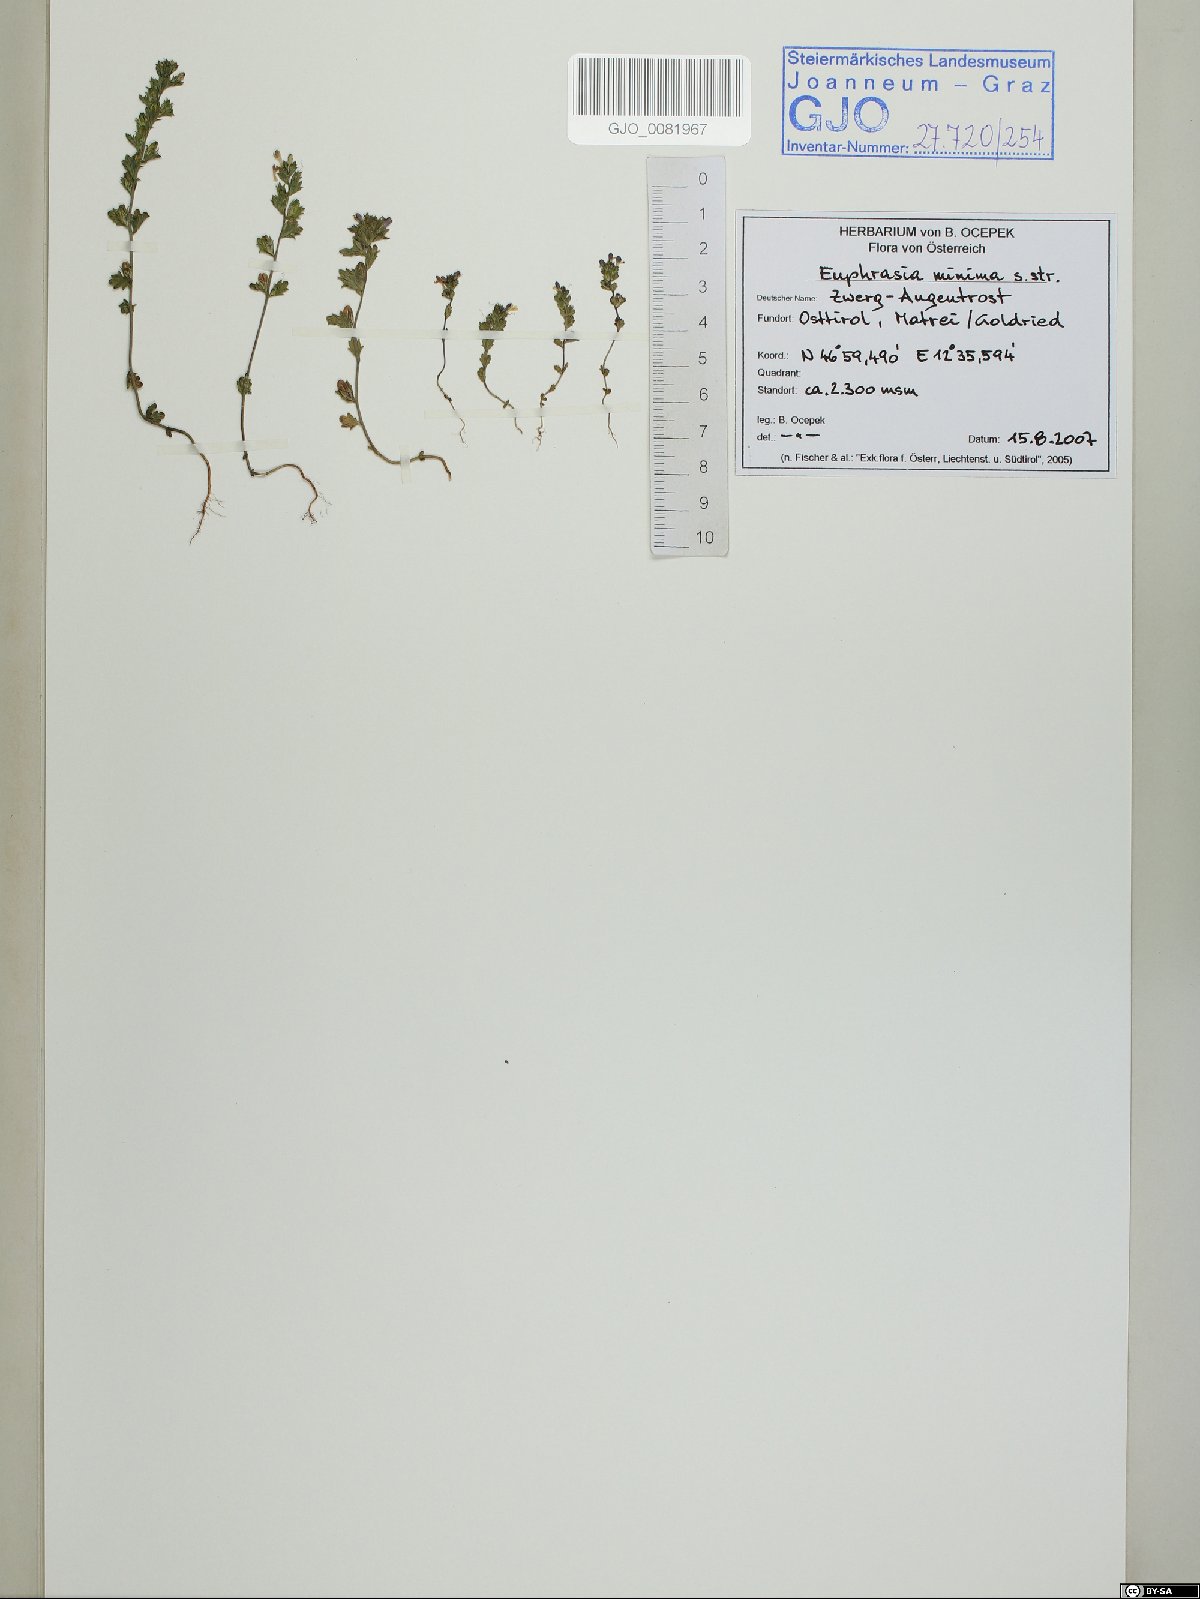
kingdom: Plantae
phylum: Tracheophyta
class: Magnoliopsida
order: Lamiales
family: Orobanchaceae
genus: Euphrasia
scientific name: Euphrasia minima
